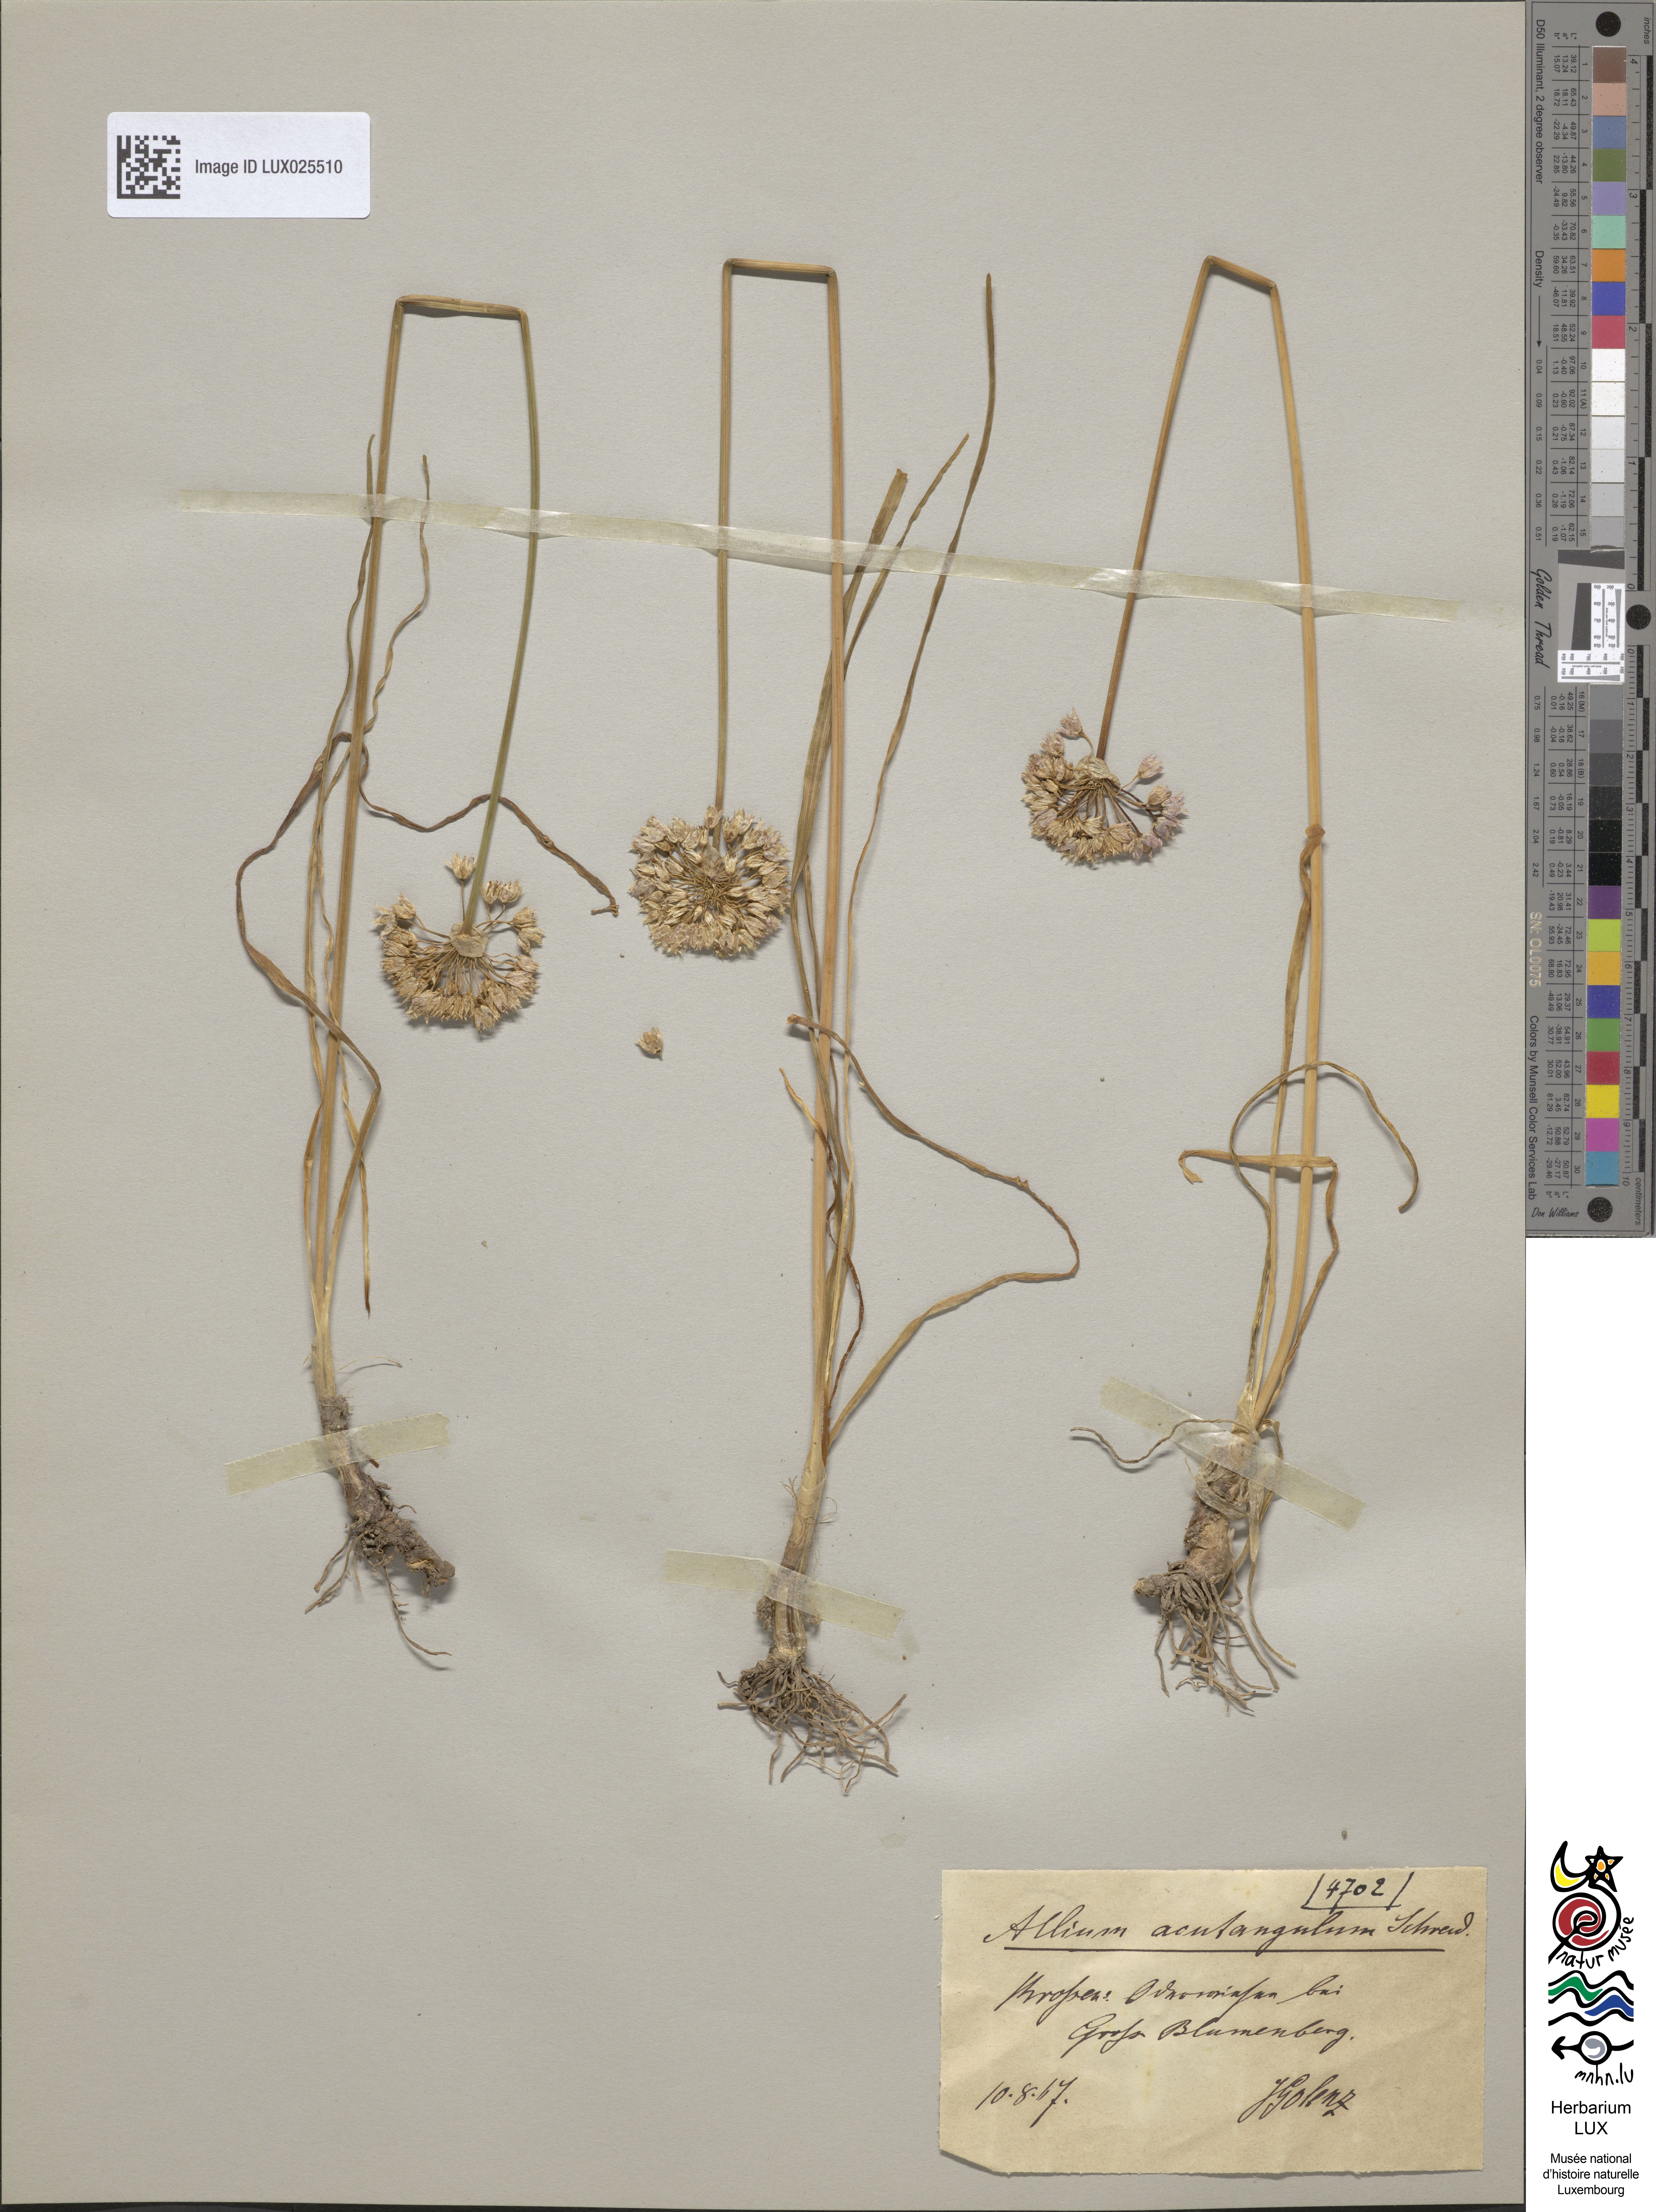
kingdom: Plantae
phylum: Tracheophyta
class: Liliopsida
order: Asparagales
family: Amaryllidaceae
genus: Allium
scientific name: Allium angulosum
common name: Mouse garlic
